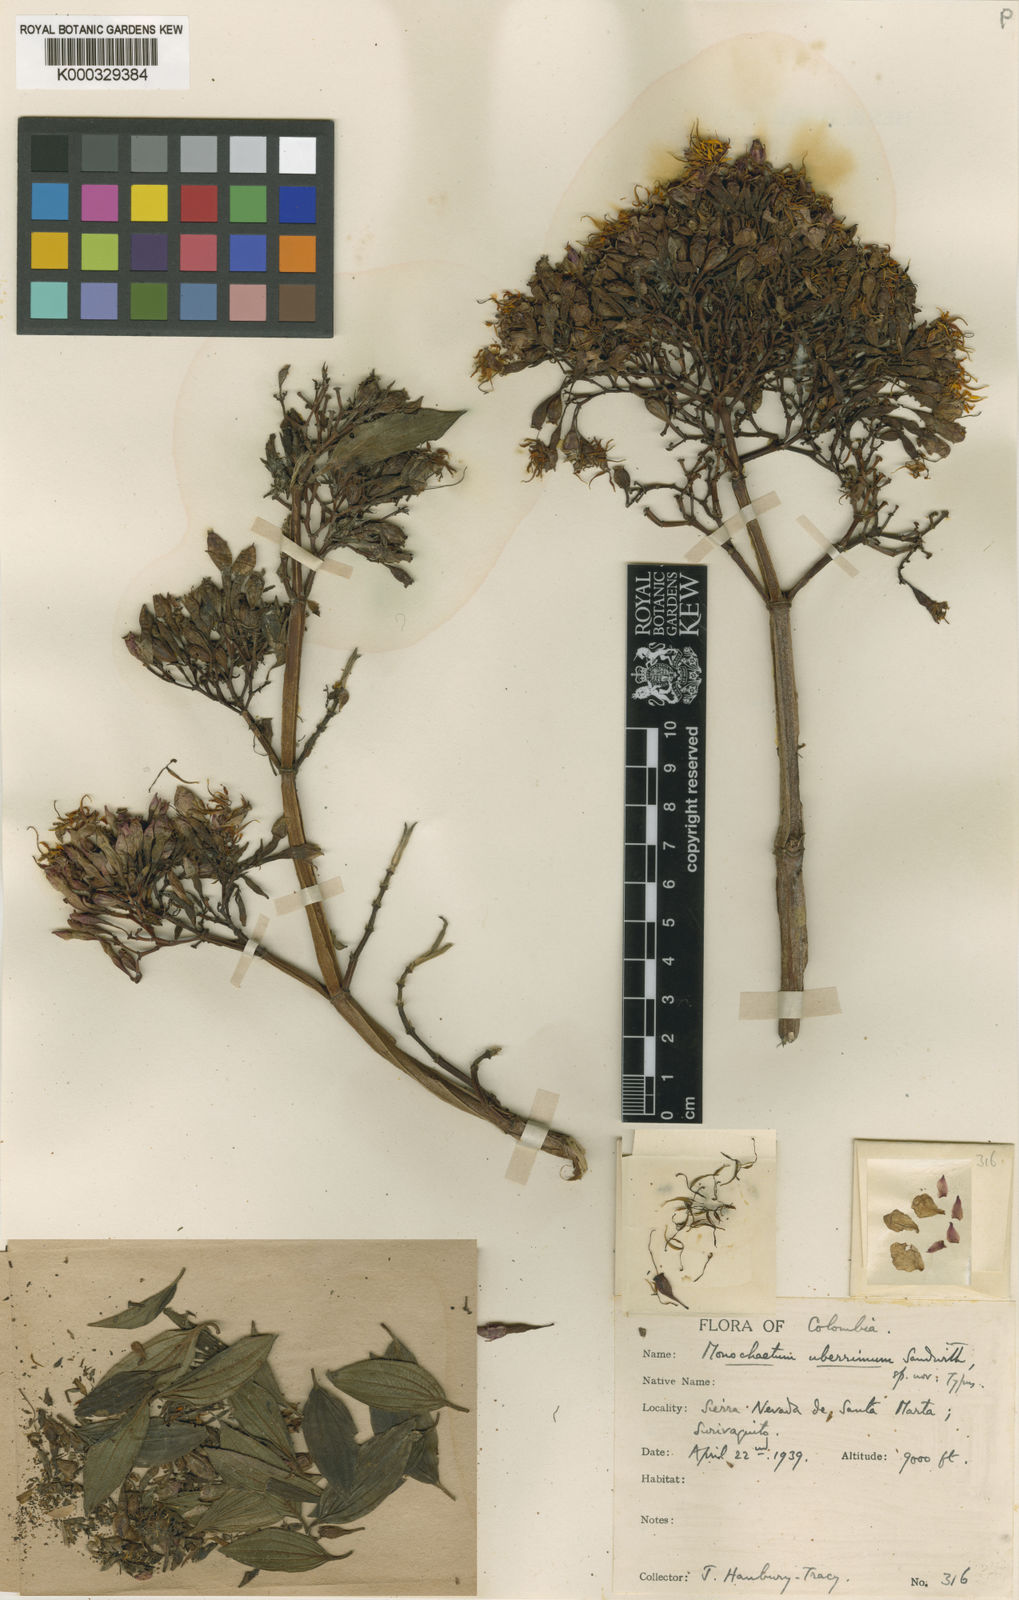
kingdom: Plantae
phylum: Tracheophyta
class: Magnoliopsida
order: Myrtales
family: Melastomataceae
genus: Monochaetum
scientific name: Monochaetum uberrimum
